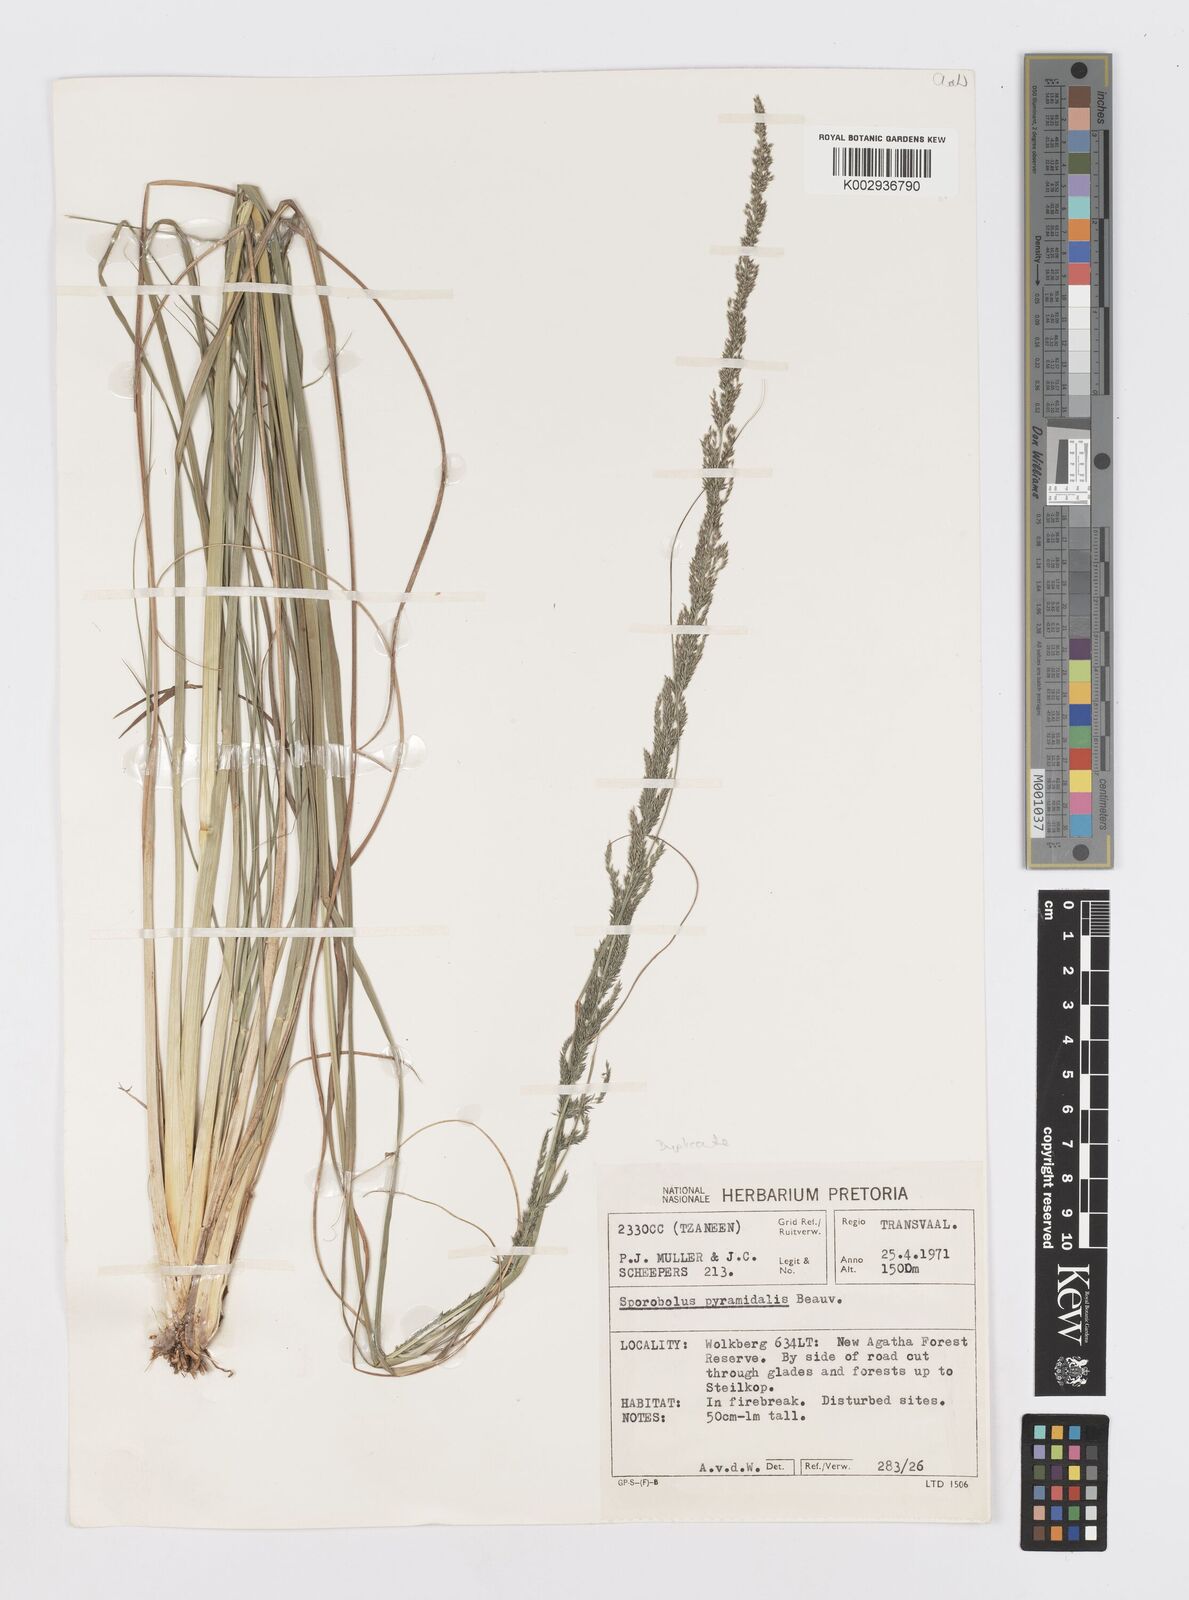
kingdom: Plantae
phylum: Tracheophyta
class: Liliopsida
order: Poales
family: Poaceae
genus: Sporobolus
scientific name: Sporobolus pyramidalis
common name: West indian dropseed
